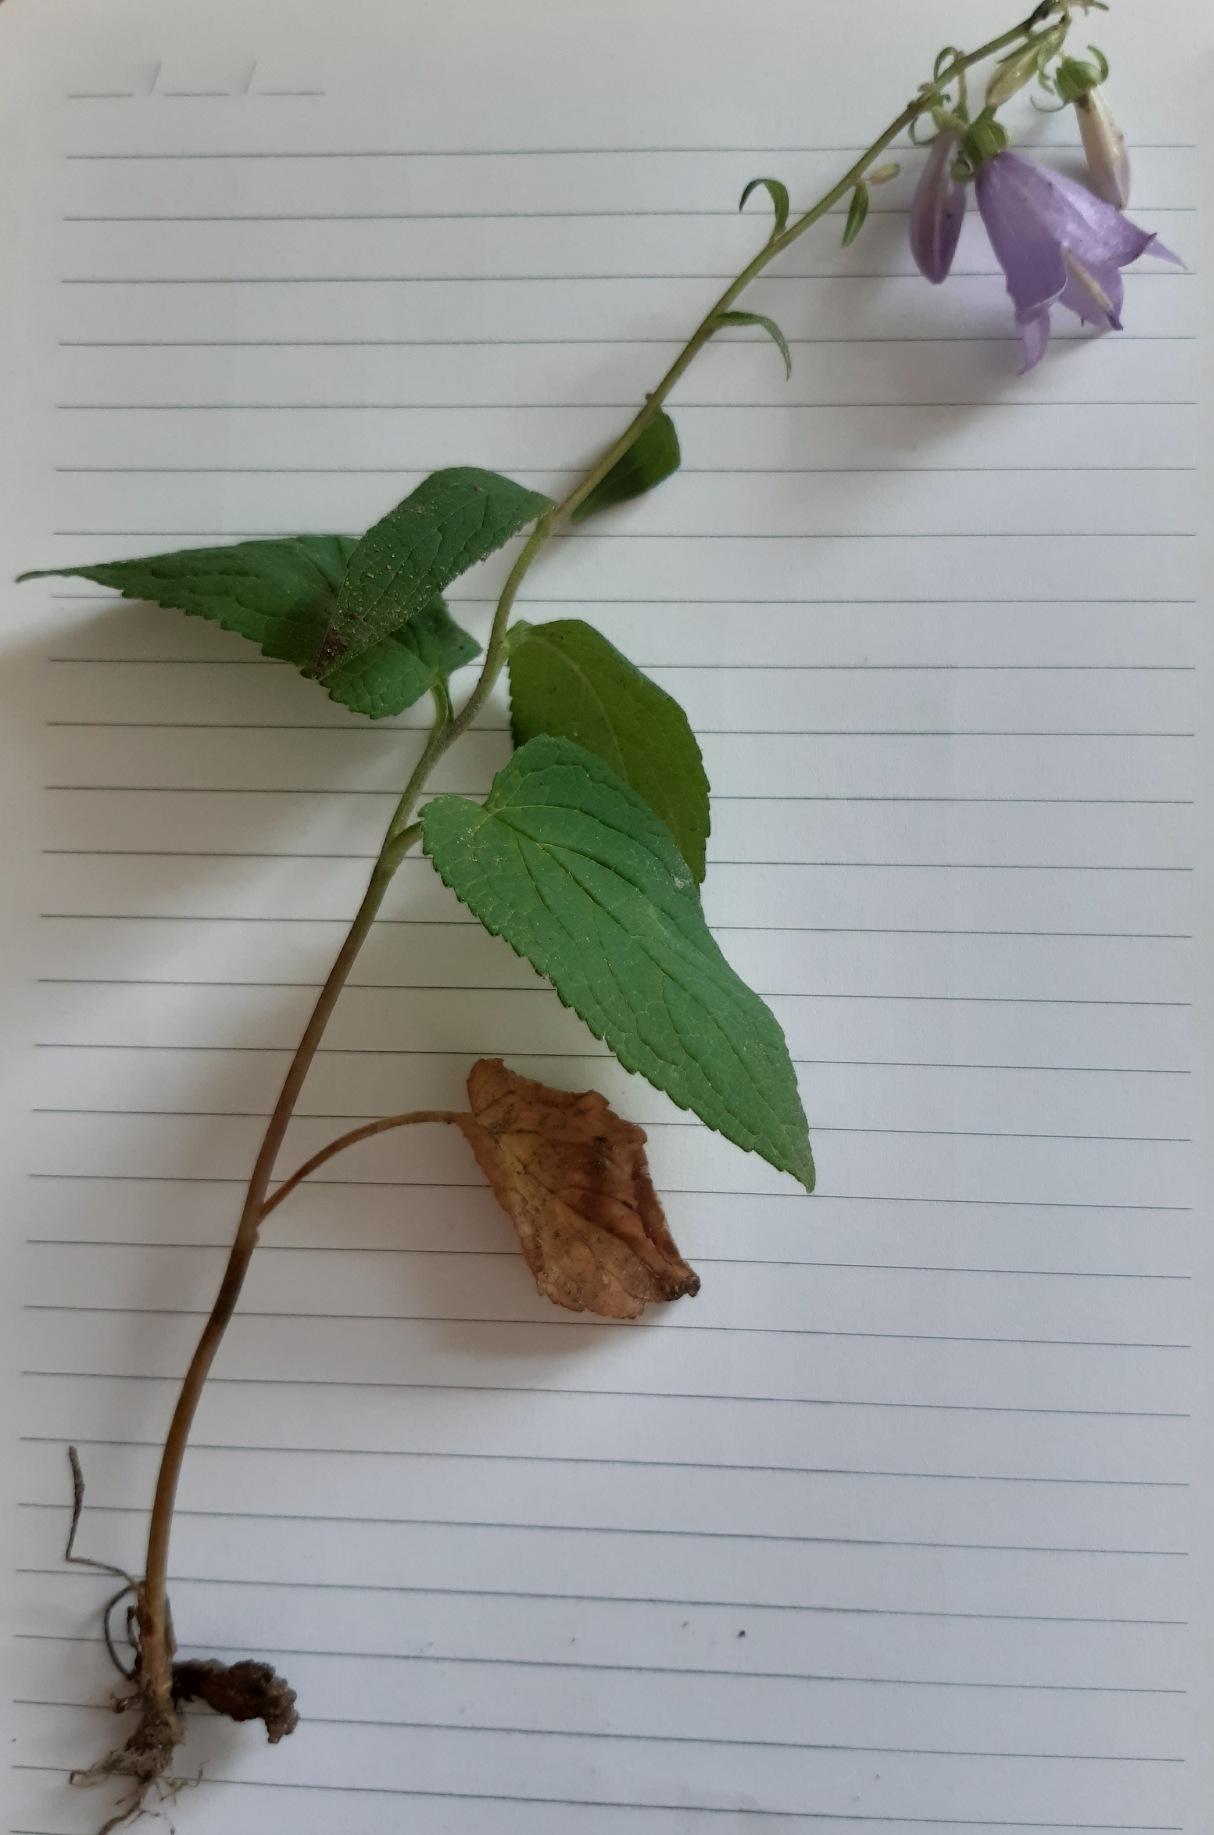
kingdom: Plantae
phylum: Tracheophyta
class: Magnoliopsida
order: Asterales
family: Campanulaceae
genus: Campanula
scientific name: Campanula rapunculoides
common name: Ensidig klokke
